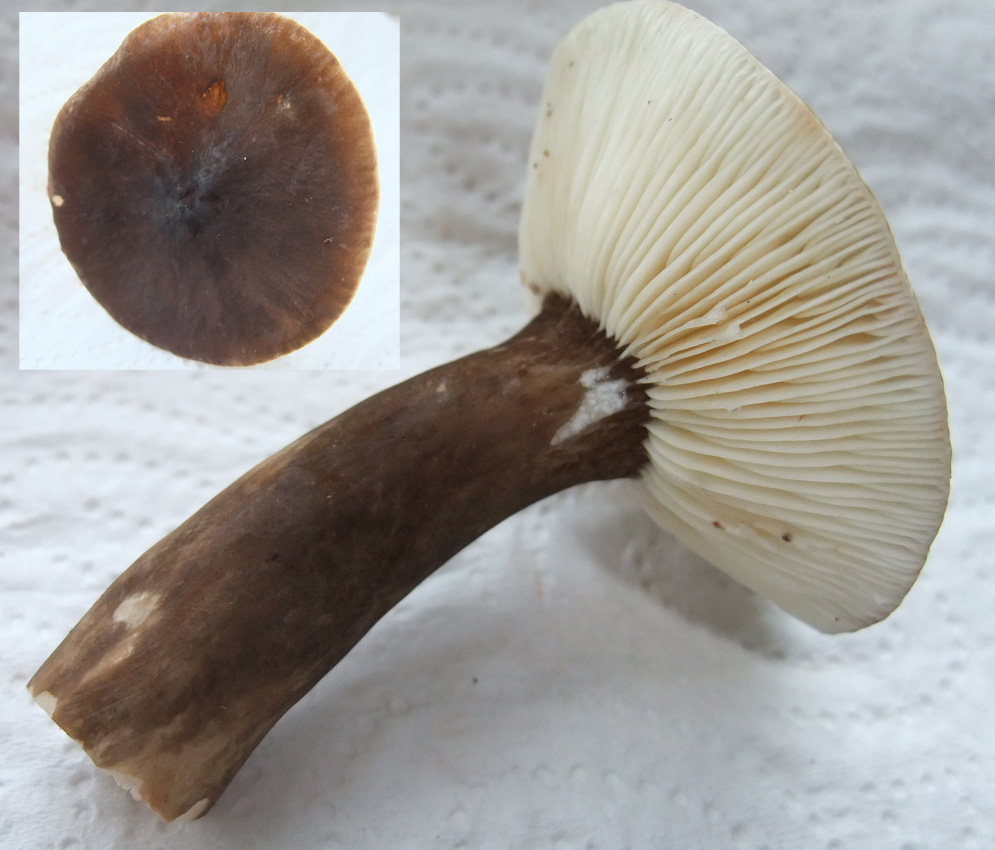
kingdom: Fungi
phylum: Basidiomycota
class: Agaricomycetes
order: Russulales
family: Russulaceae
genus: Lactarius
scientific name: Lactarius lignyotus
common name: fløjls-mælkehat
